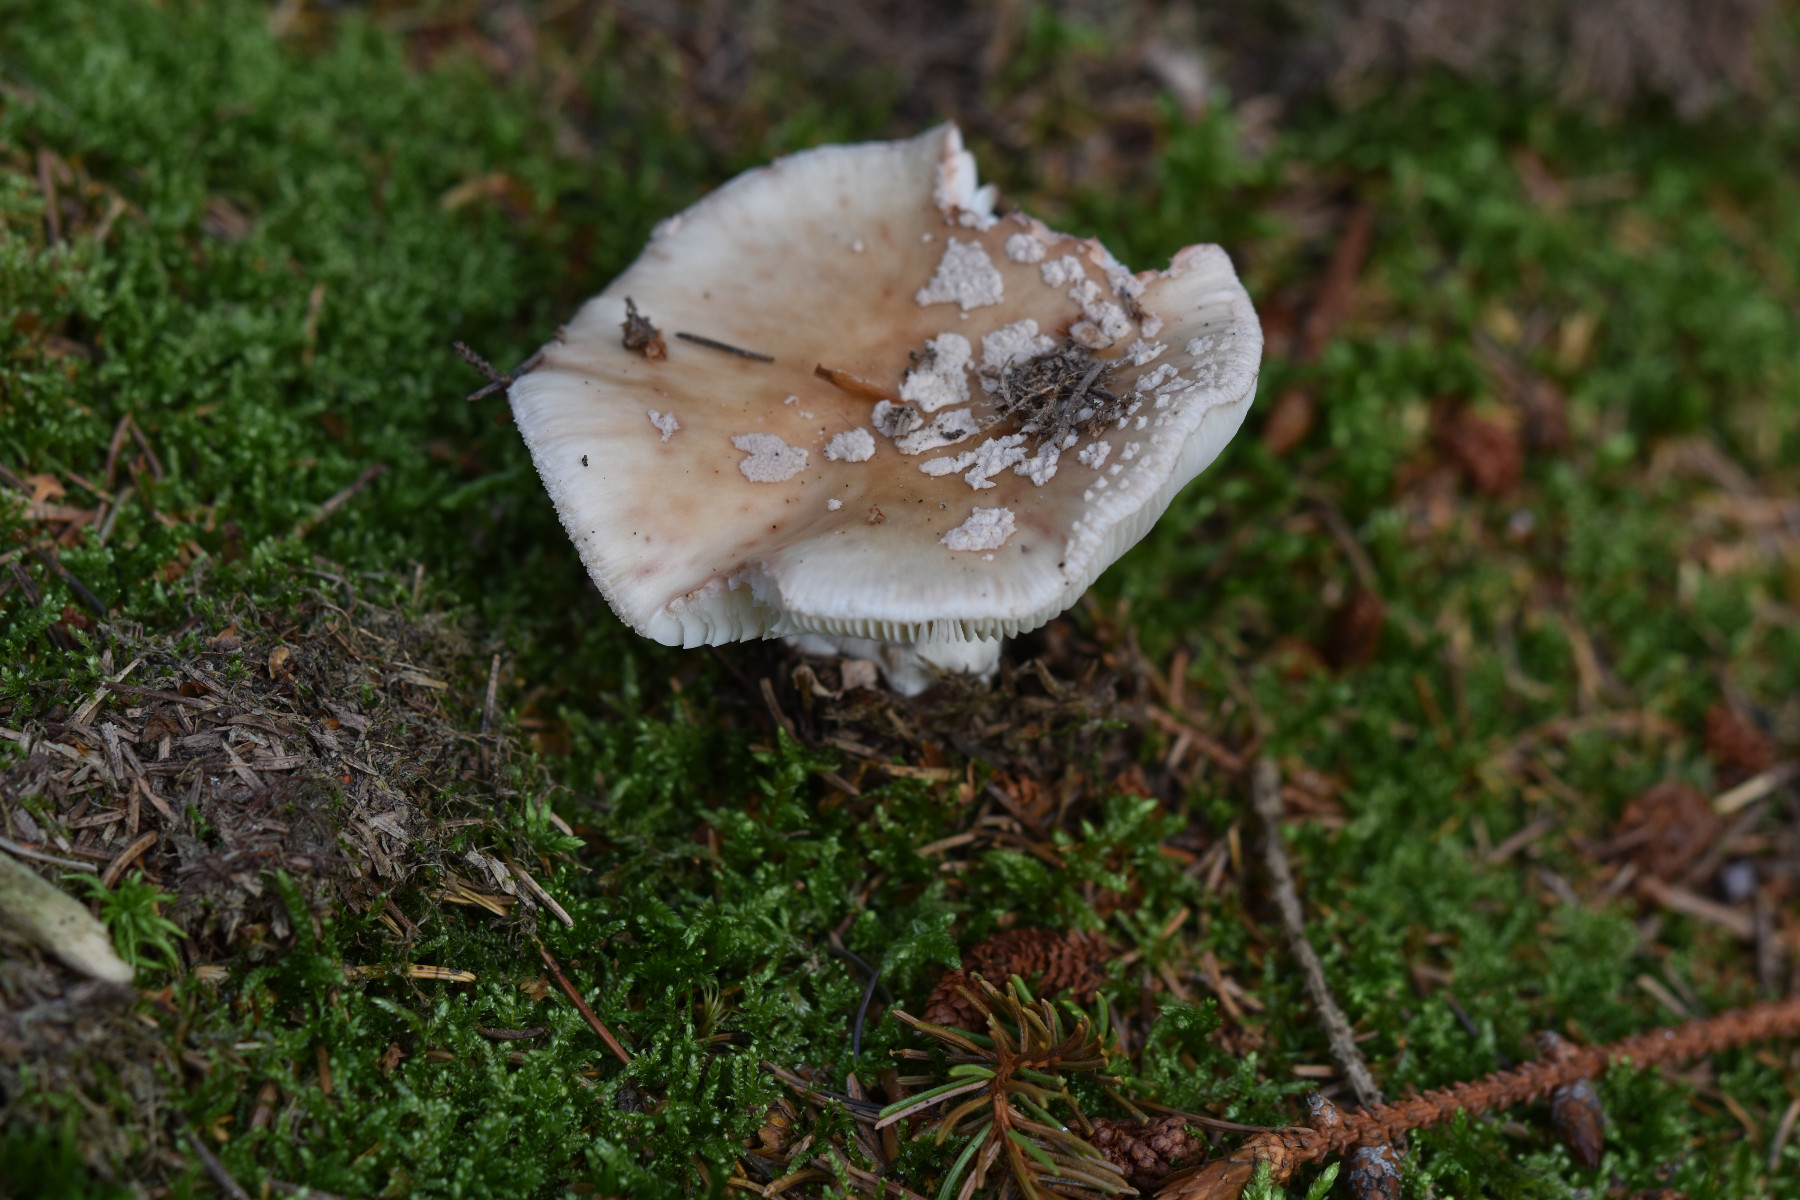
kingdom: Fungi
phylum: Basidiomycota
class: Agaricomycetes
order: Agaricales
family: Amanitaceae
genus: Amanita
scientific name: Amanita rubescens
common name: rødmende fluesvamp
